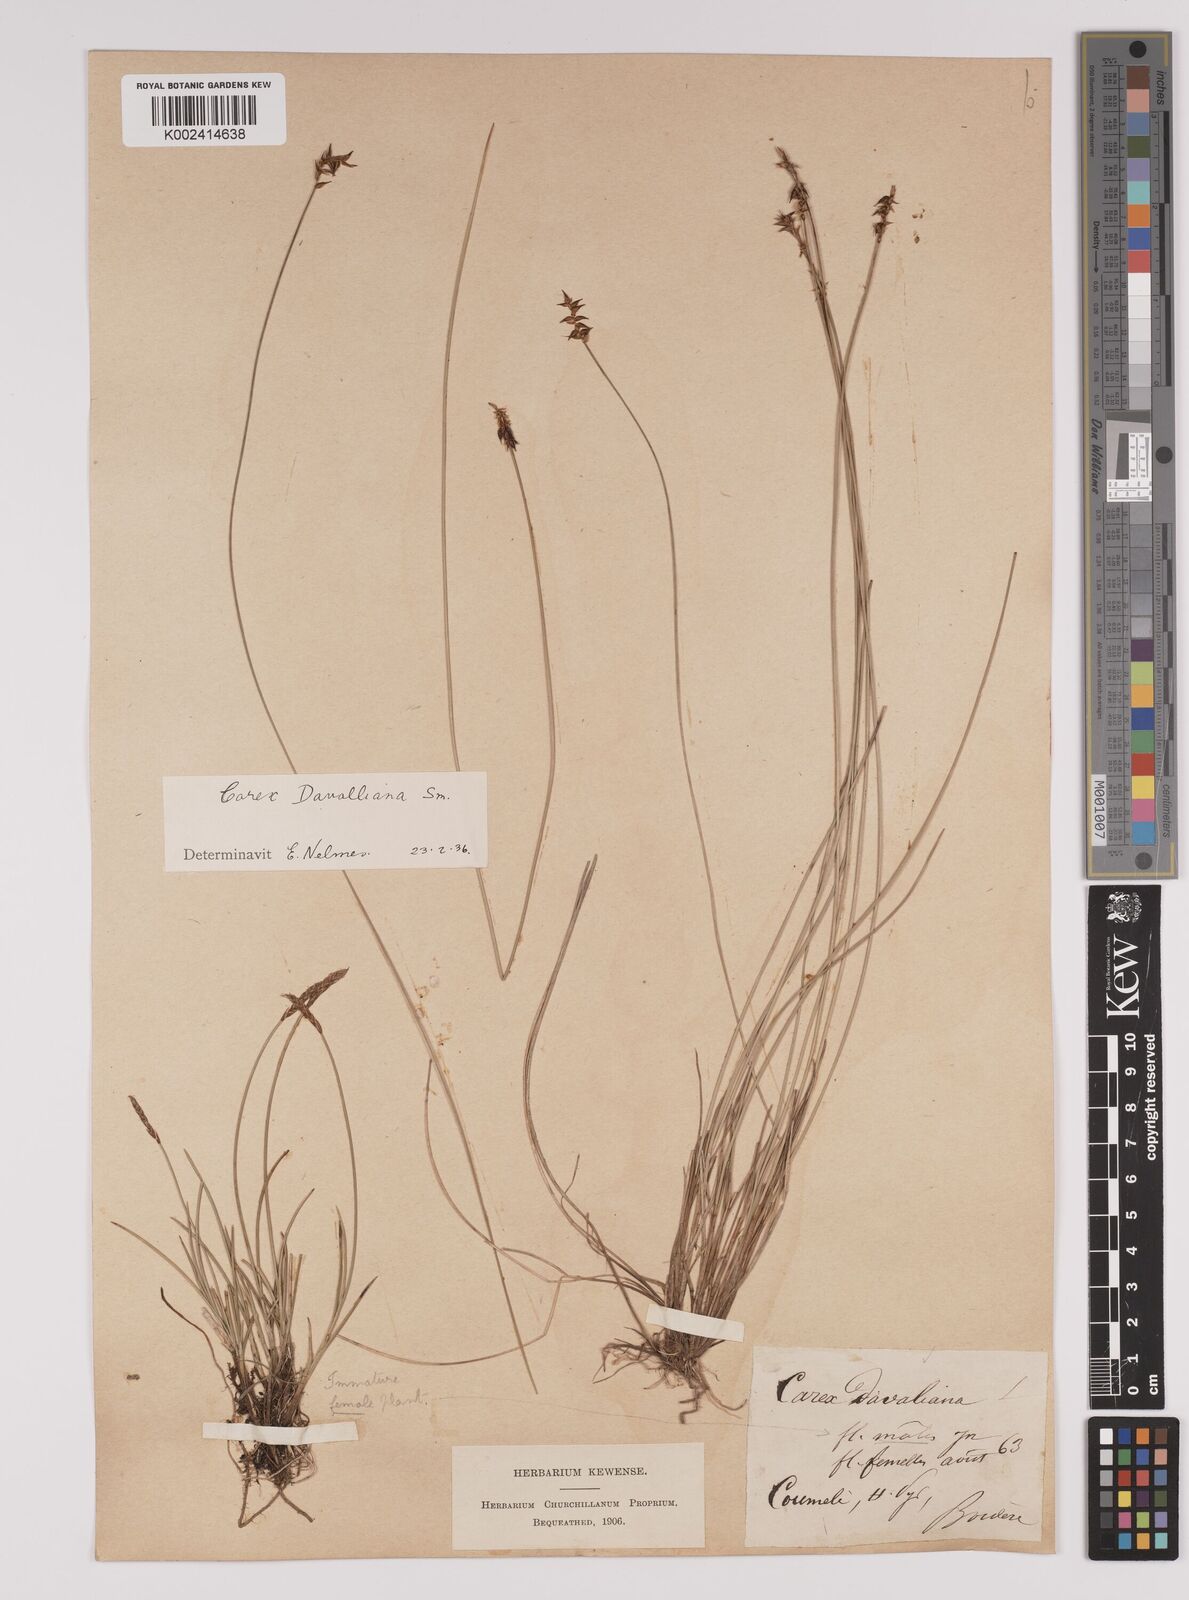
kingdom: Plantae
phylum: Tracheophyta
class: Liliopsida
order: Poales
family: Cyperaceae
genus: Carex
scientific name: Carex davalliana
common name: Davall's sedge
